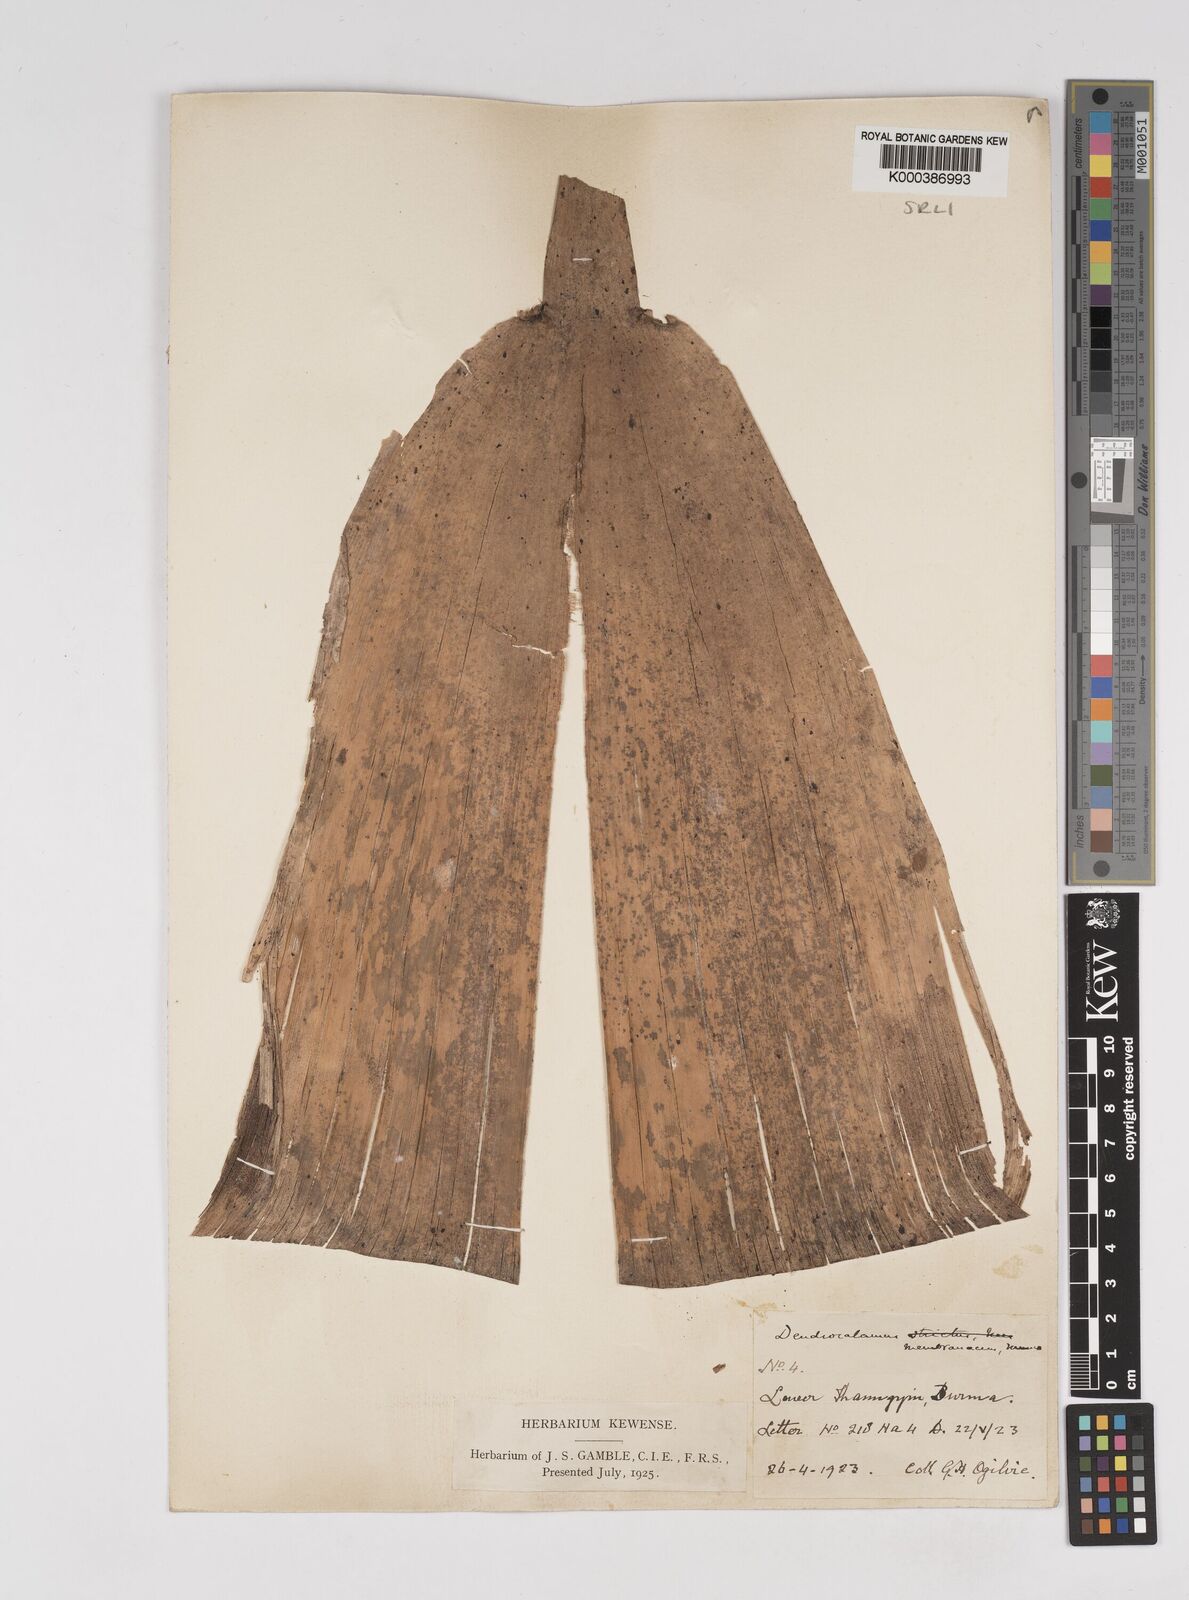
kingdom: Plantae
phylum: Tracheophyta
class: Liliopsida
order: Poales
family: Poaceae
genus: Dendrocalamus
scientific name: Dendrocalamus membranaceus
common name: White bamboo
